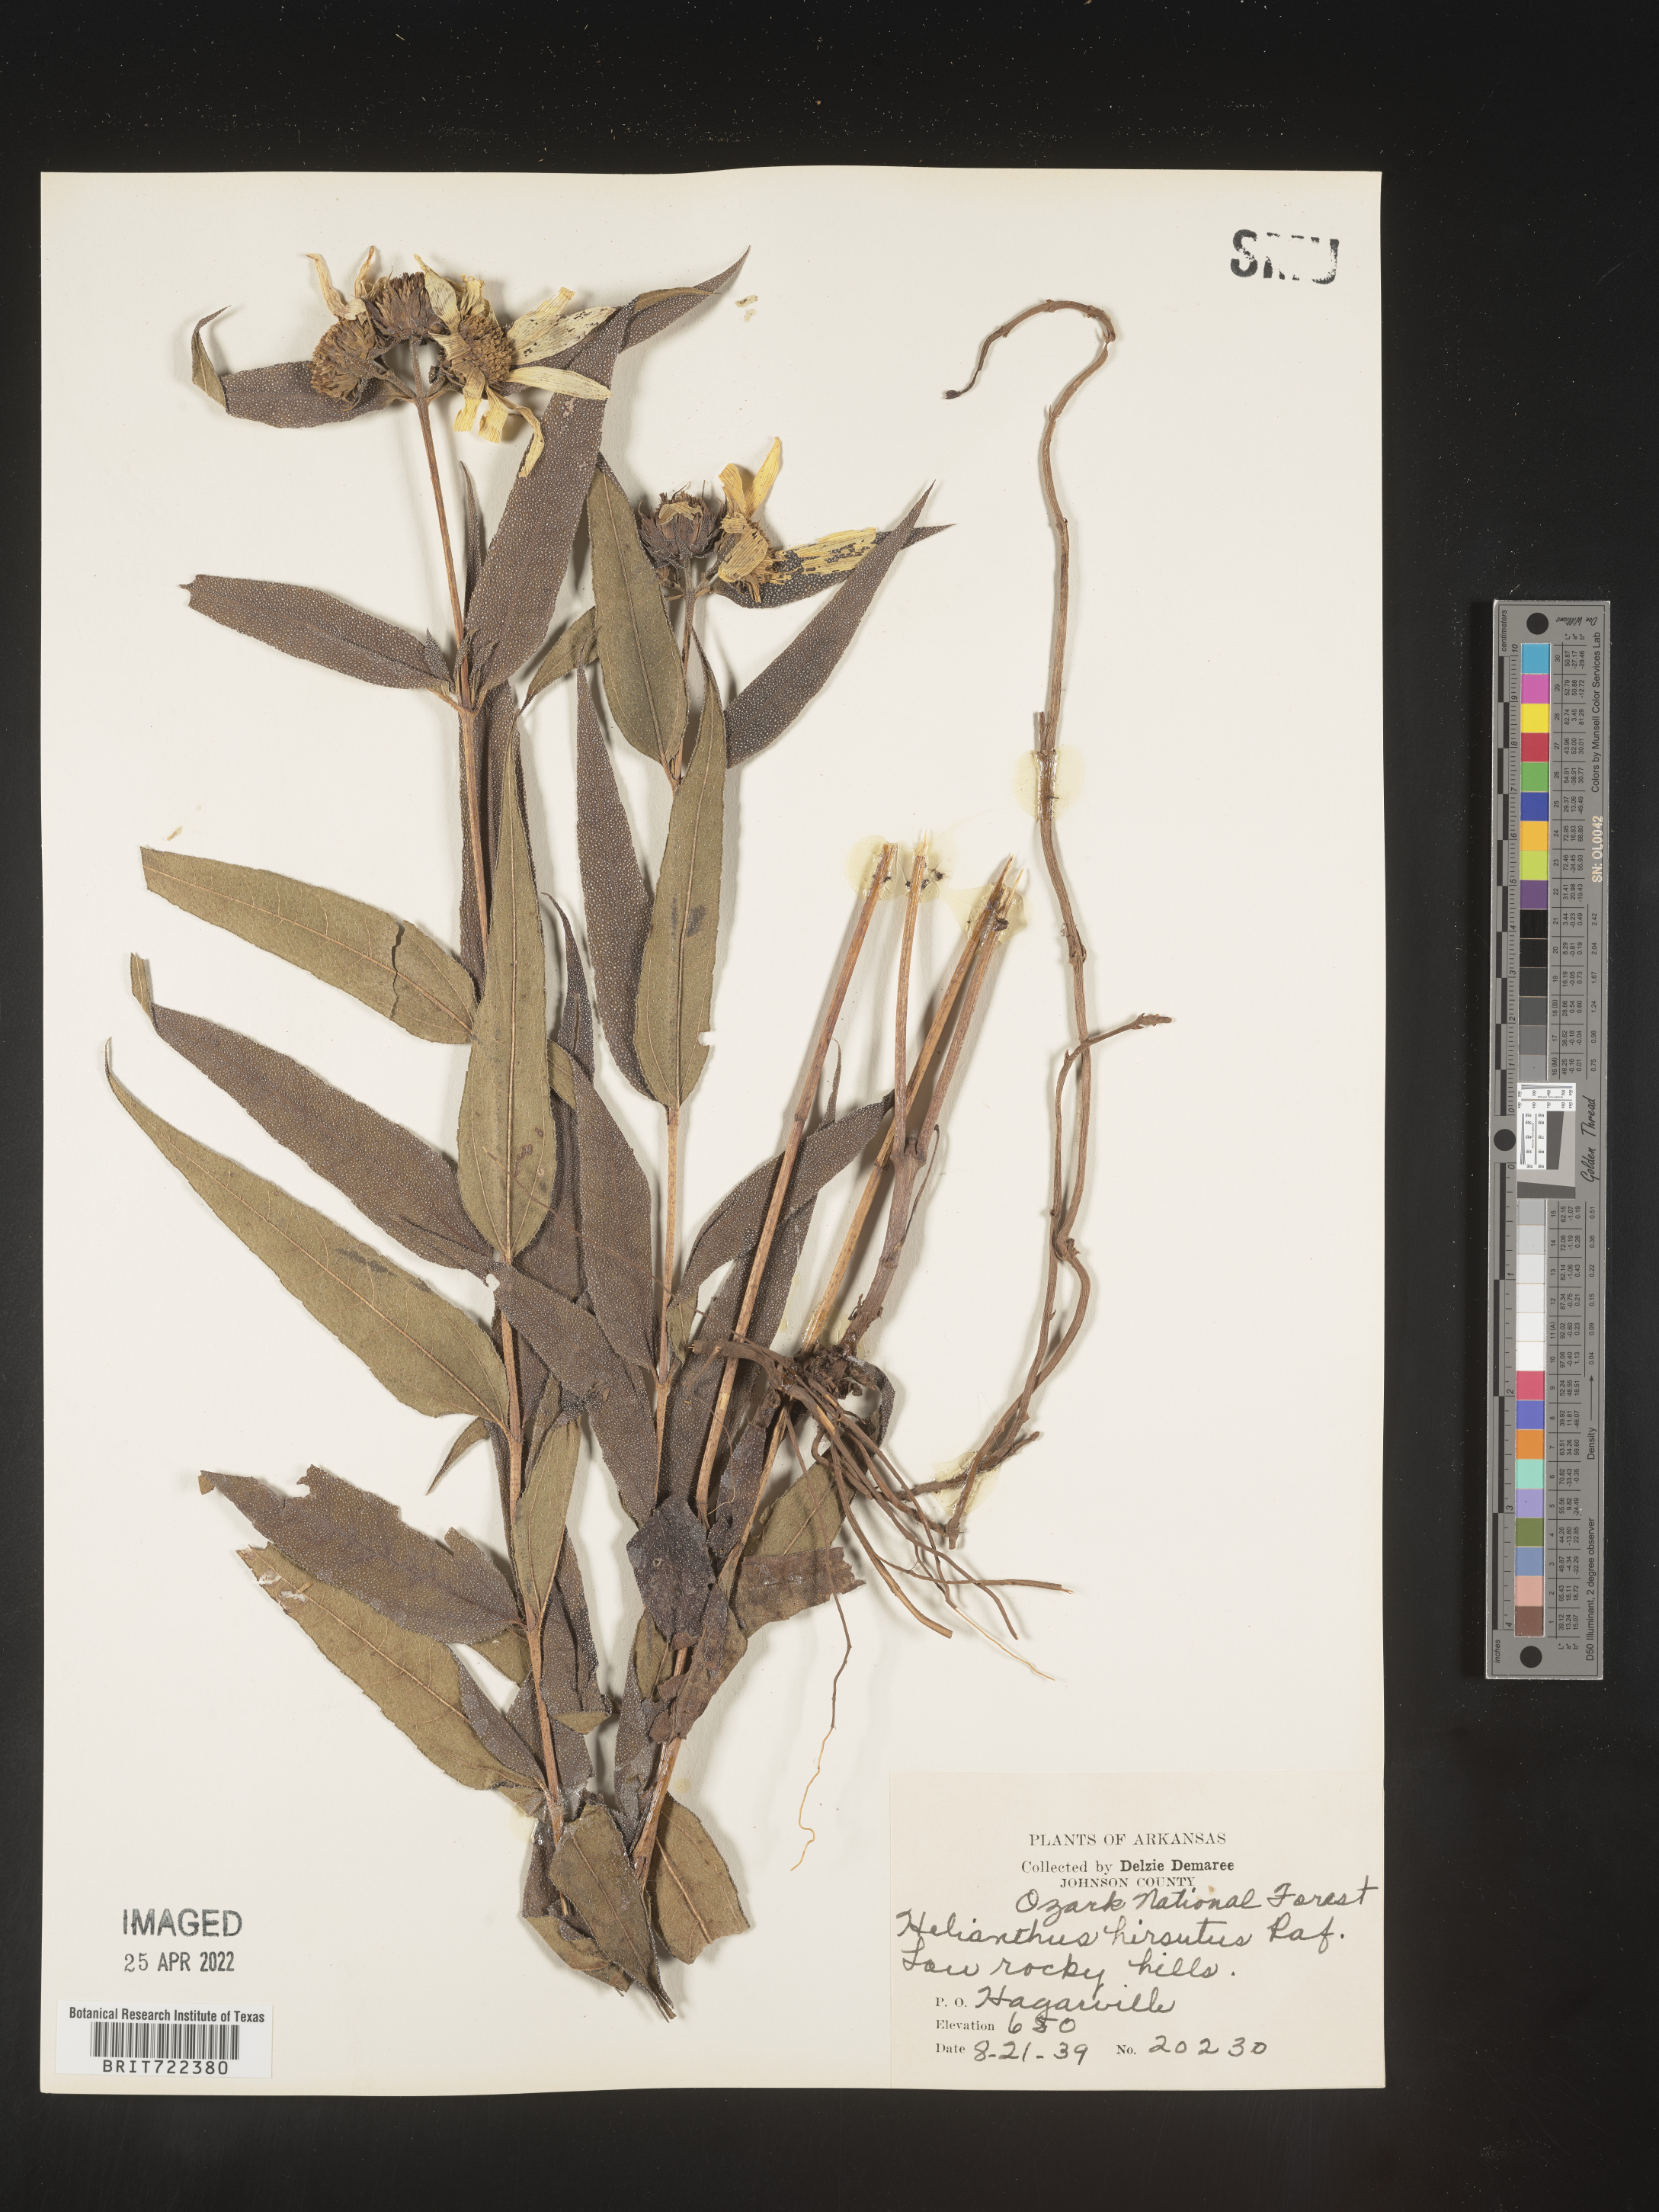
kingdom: Plantae
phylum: Tracheophyta
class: Magnoliopsida
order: Asterales
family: Asteraceae
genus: Helianthus
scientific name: Helianthus hirsutus
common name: Hairy sunflower
